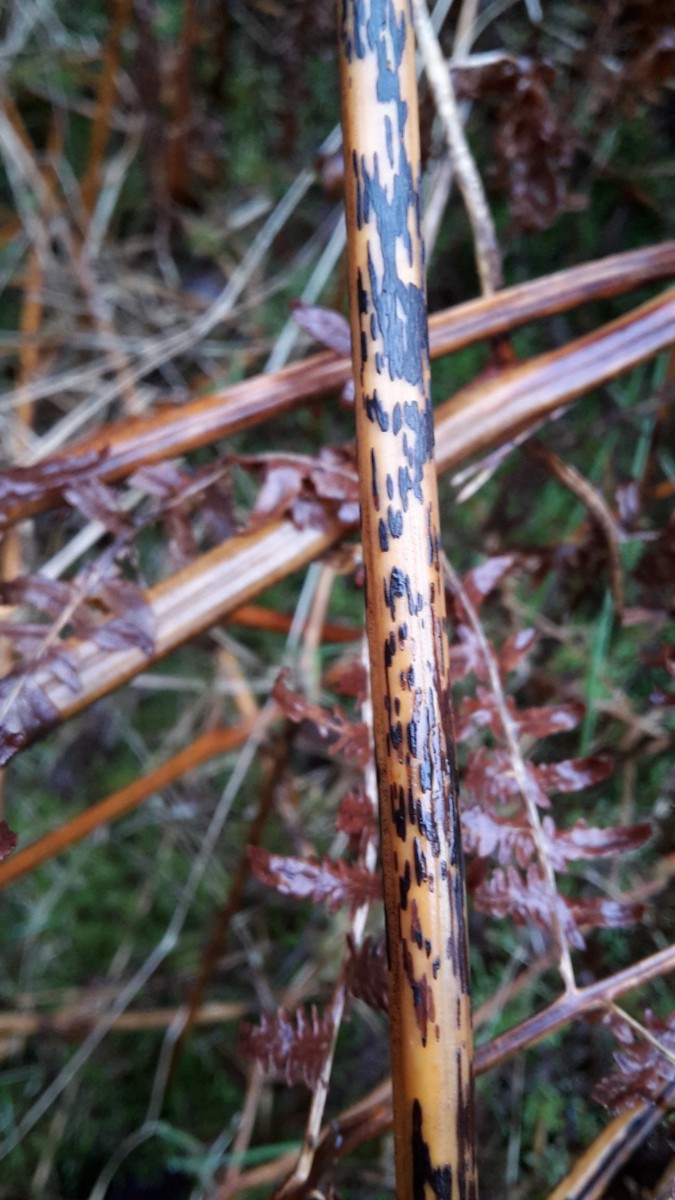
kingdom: Fungi
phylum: Ascomycota
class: Dothideomycetes
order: Pleosporales
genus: Rhopographus
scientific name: Rhopographus filicinus
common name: Bracken map
